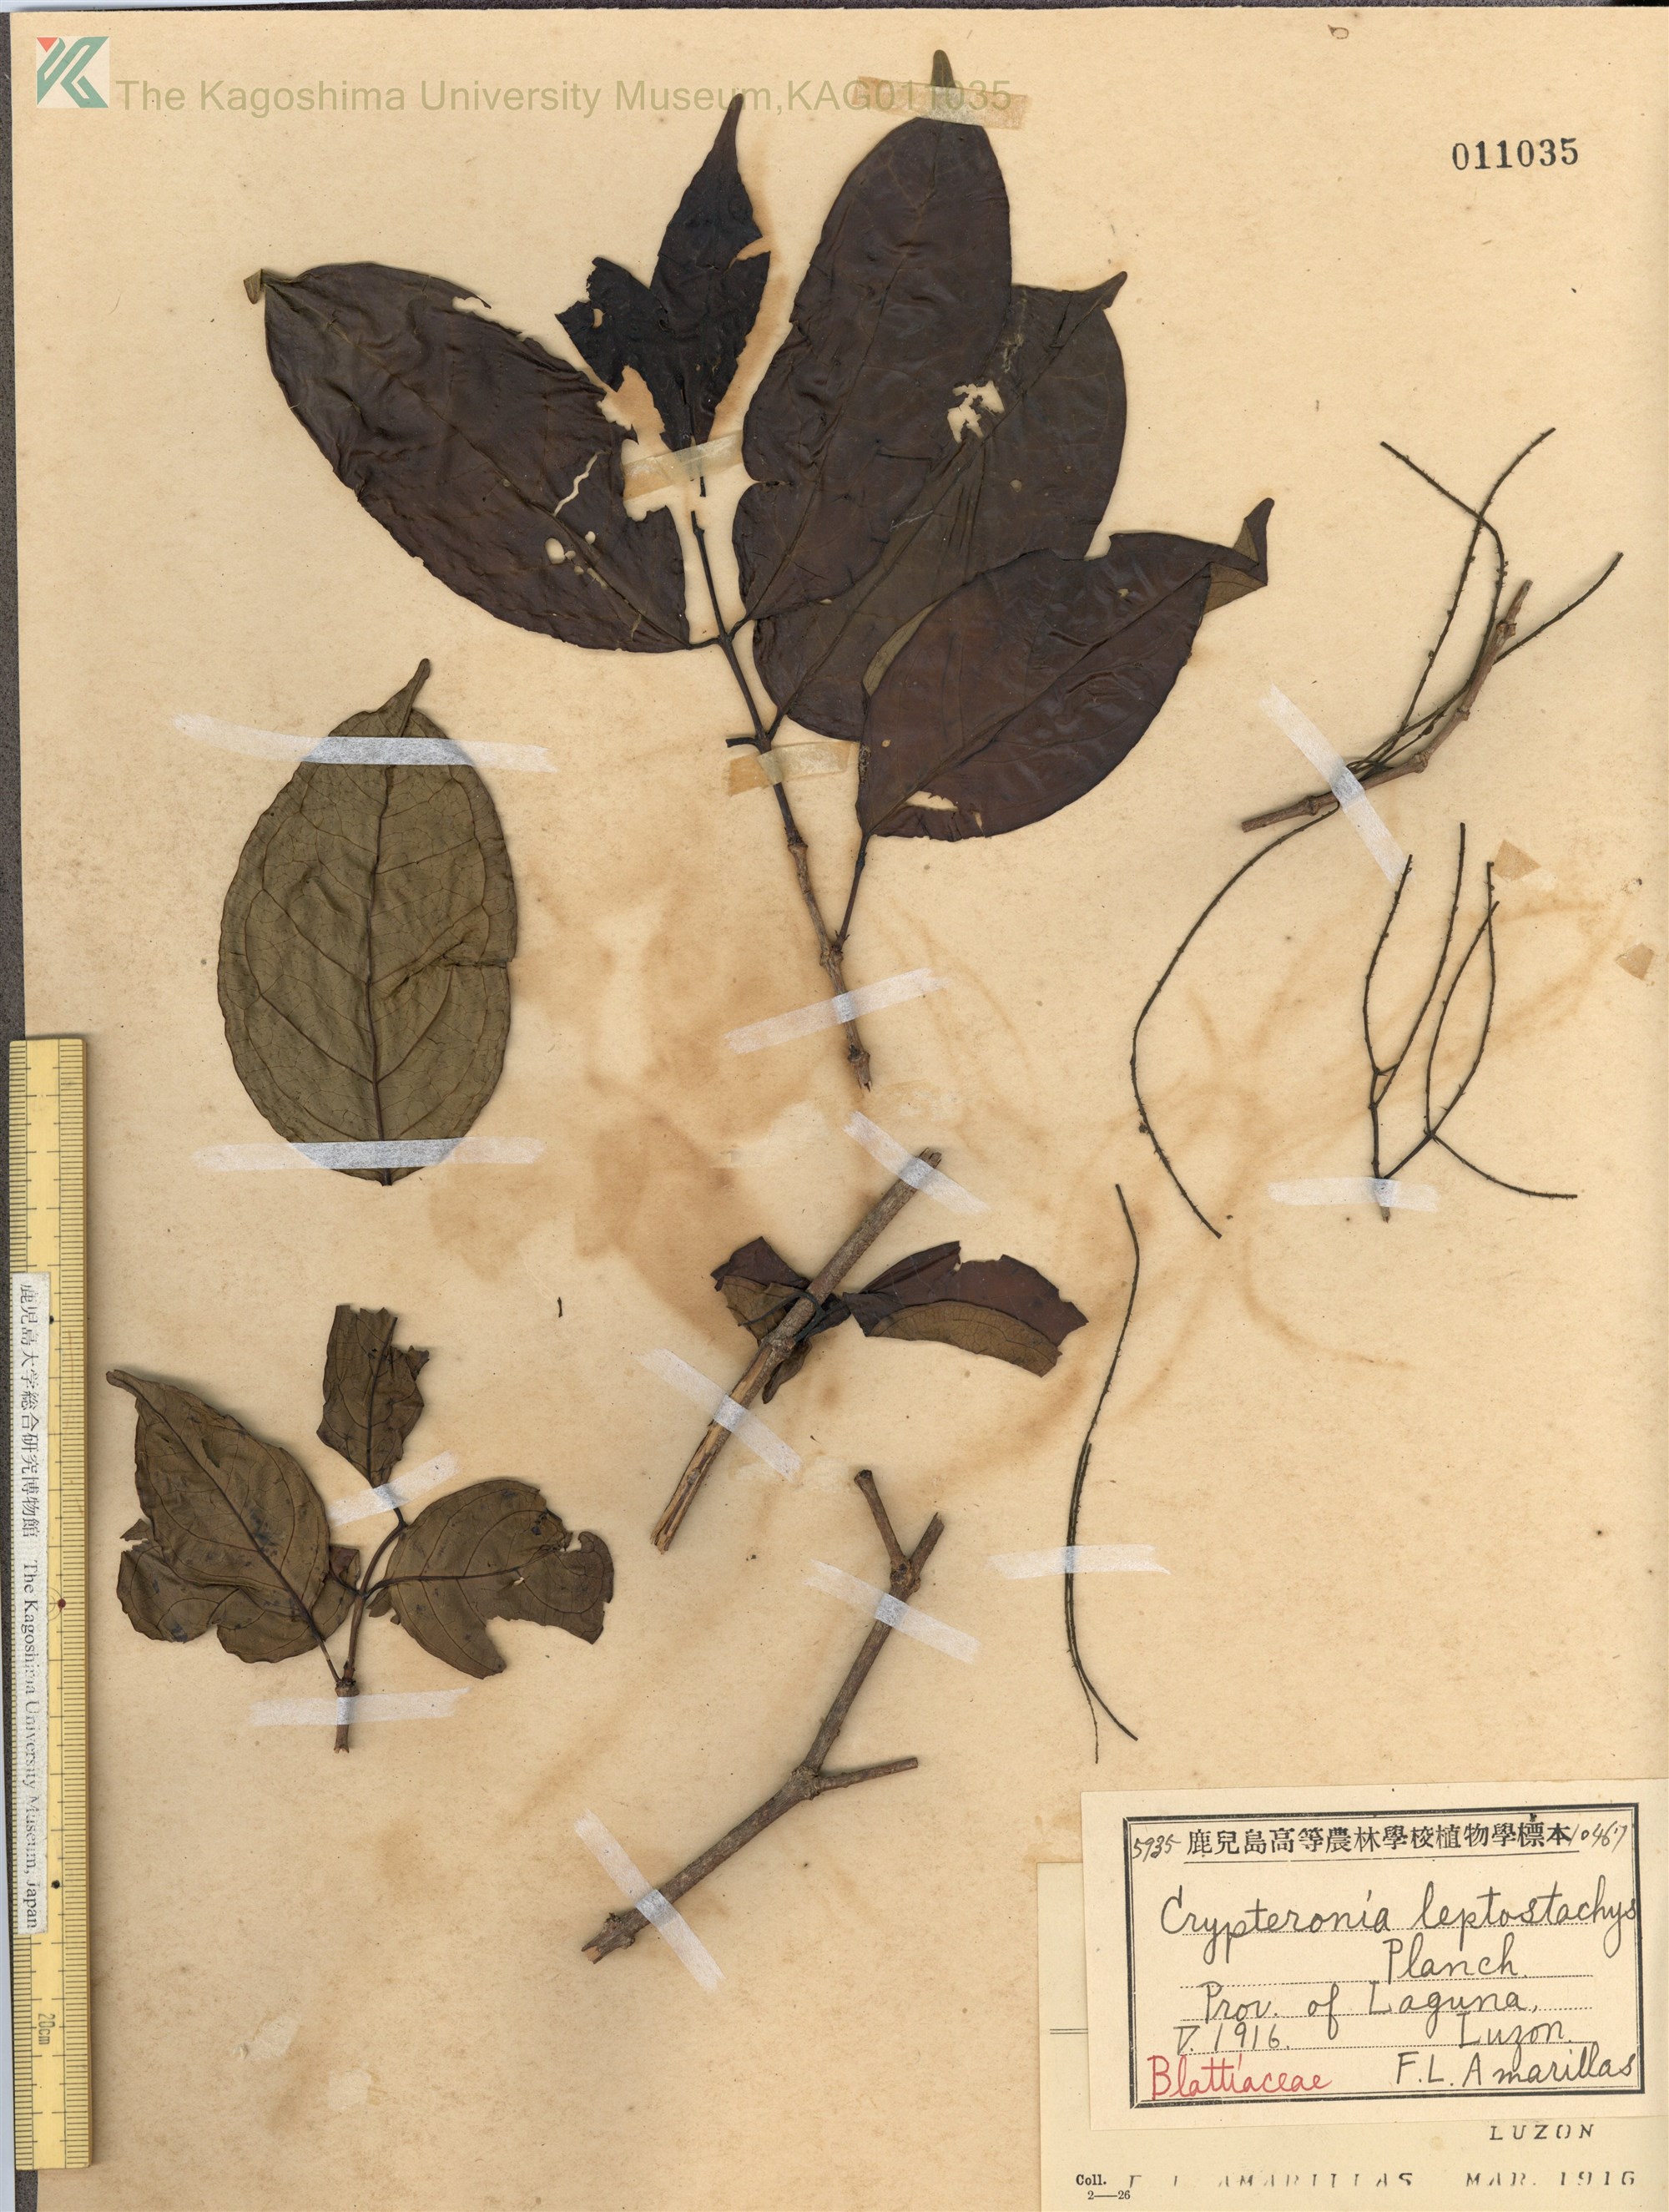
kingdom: Plantae
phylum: Tracheophyta
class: Magnoliopsida
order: Myrtales
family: Crypteroniaceae
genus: Crypteronia
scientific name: Crypteronia paniculata
